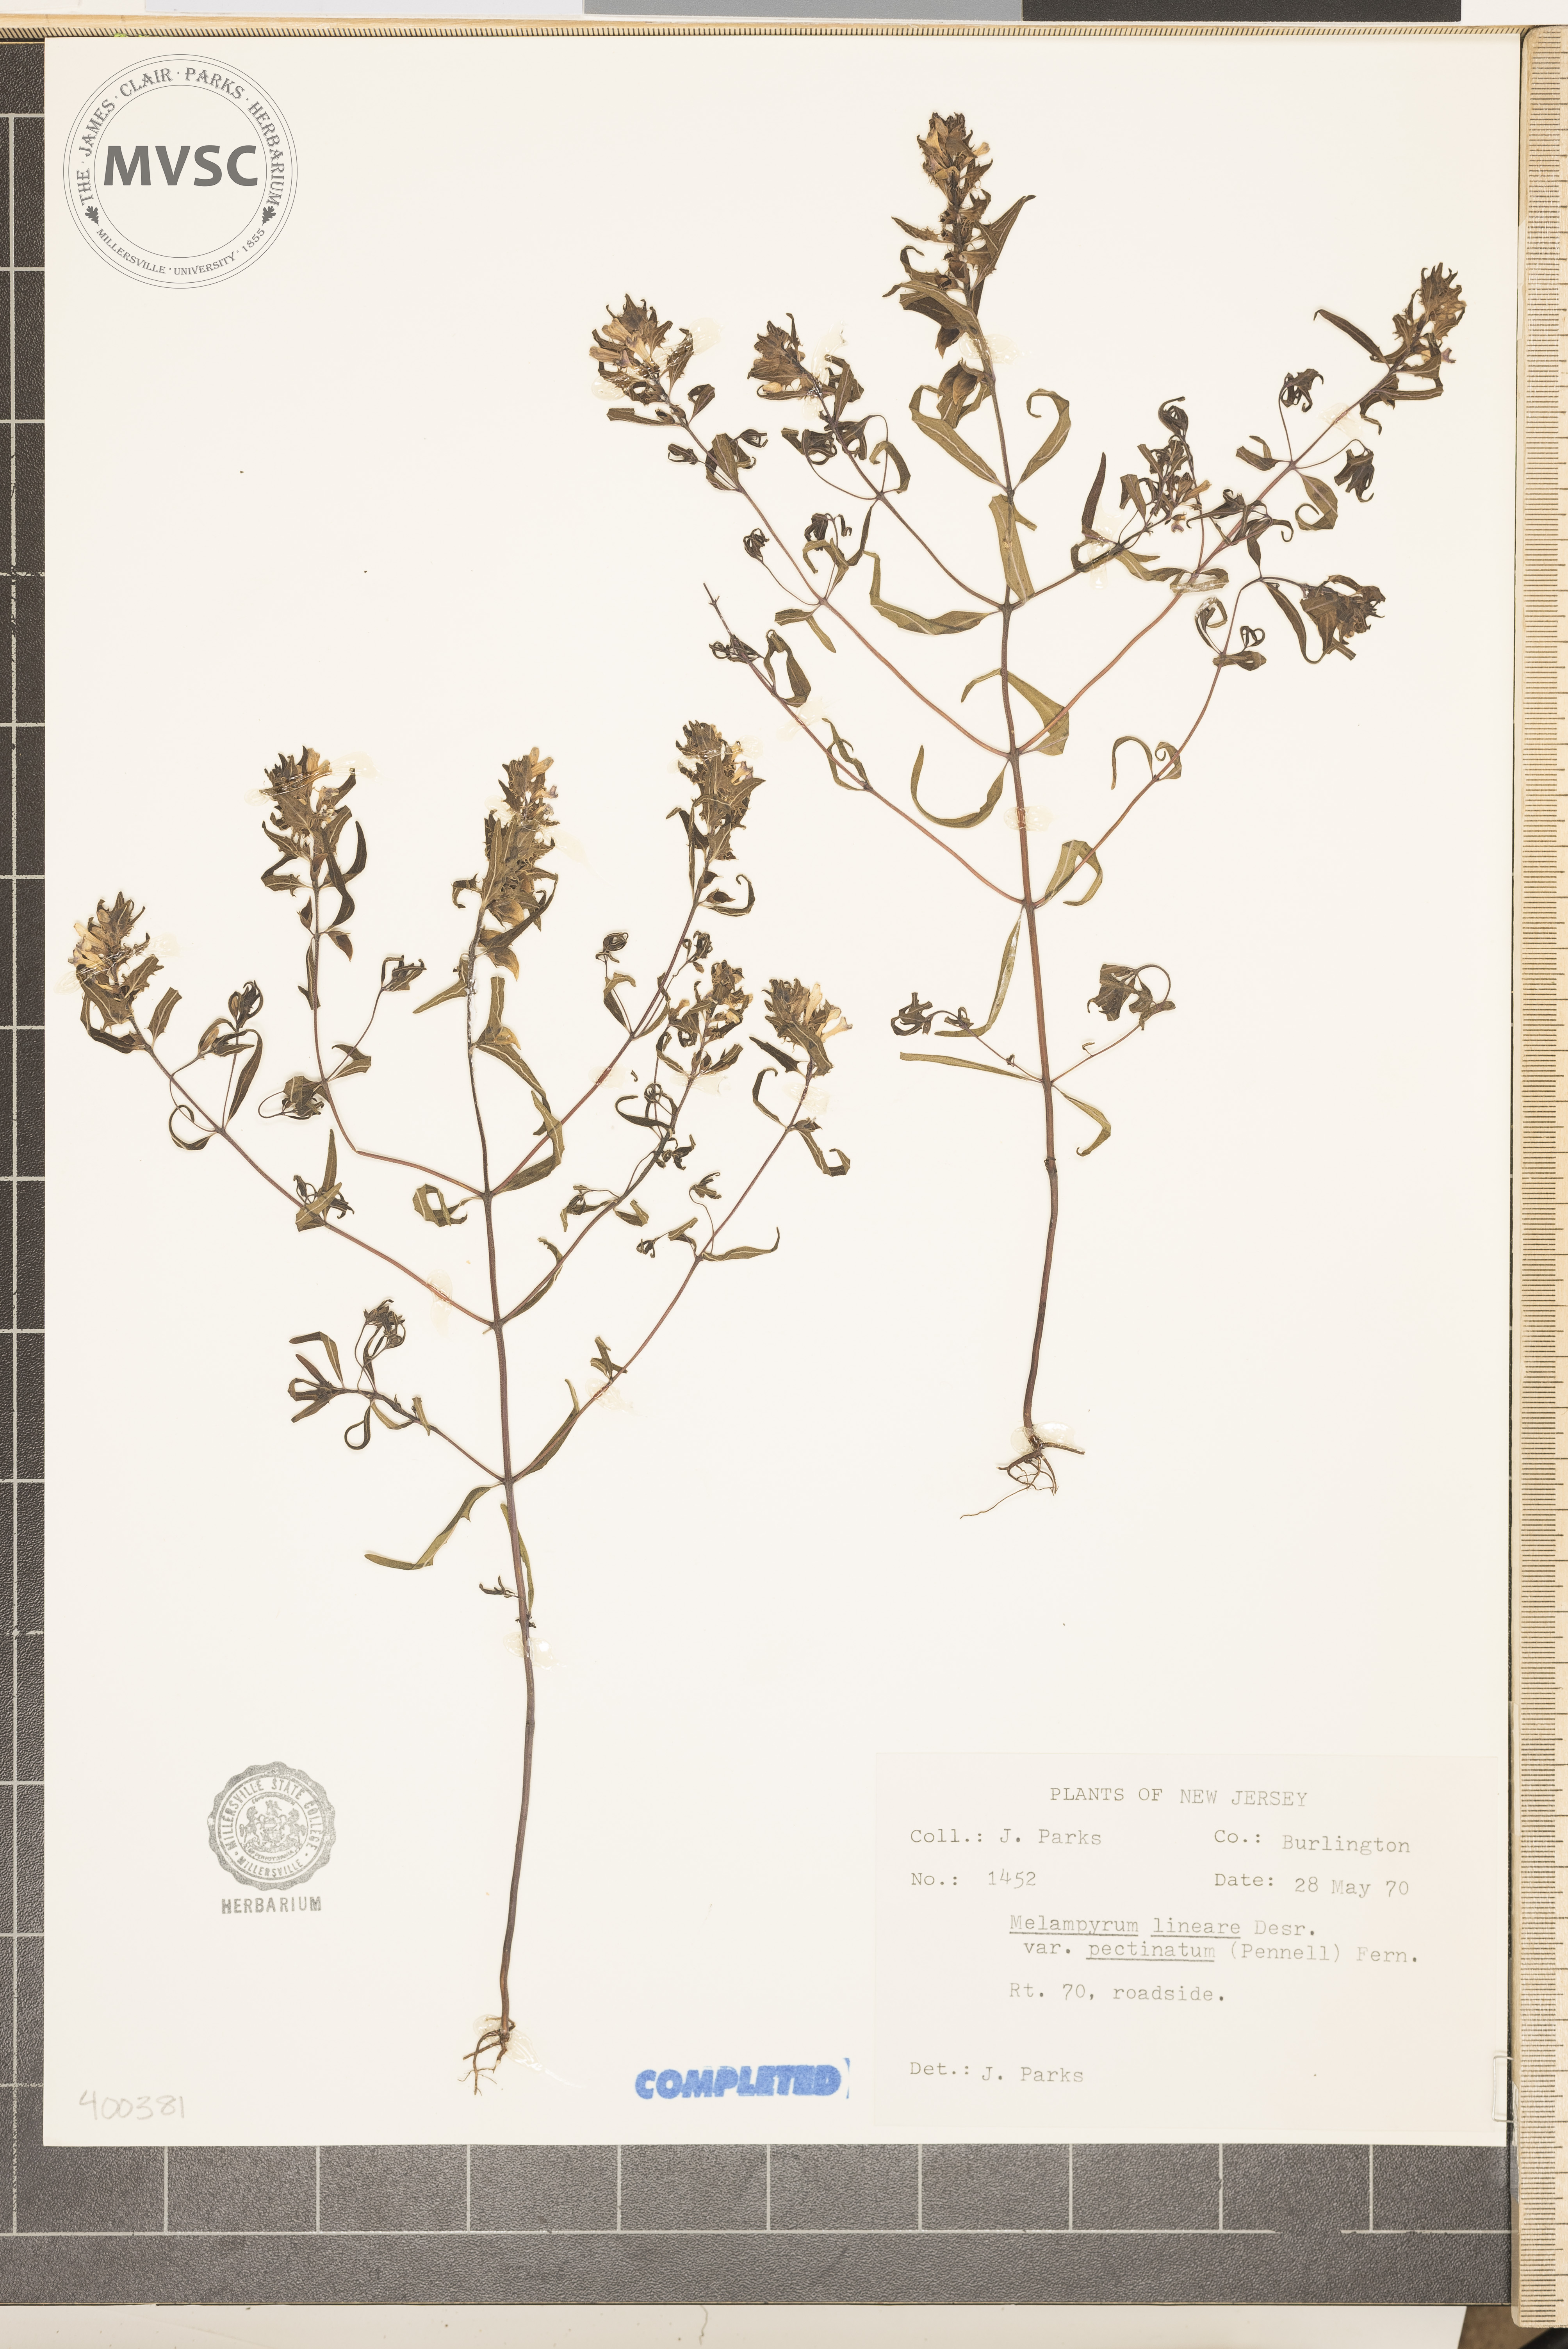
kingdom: Plantae
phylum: Tracheophyta
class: Magnoliopsida
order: Lamiales
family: Orobanchaceae
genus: Melampyrum
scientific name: Melampyrum lineare
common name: American cow-wheat
